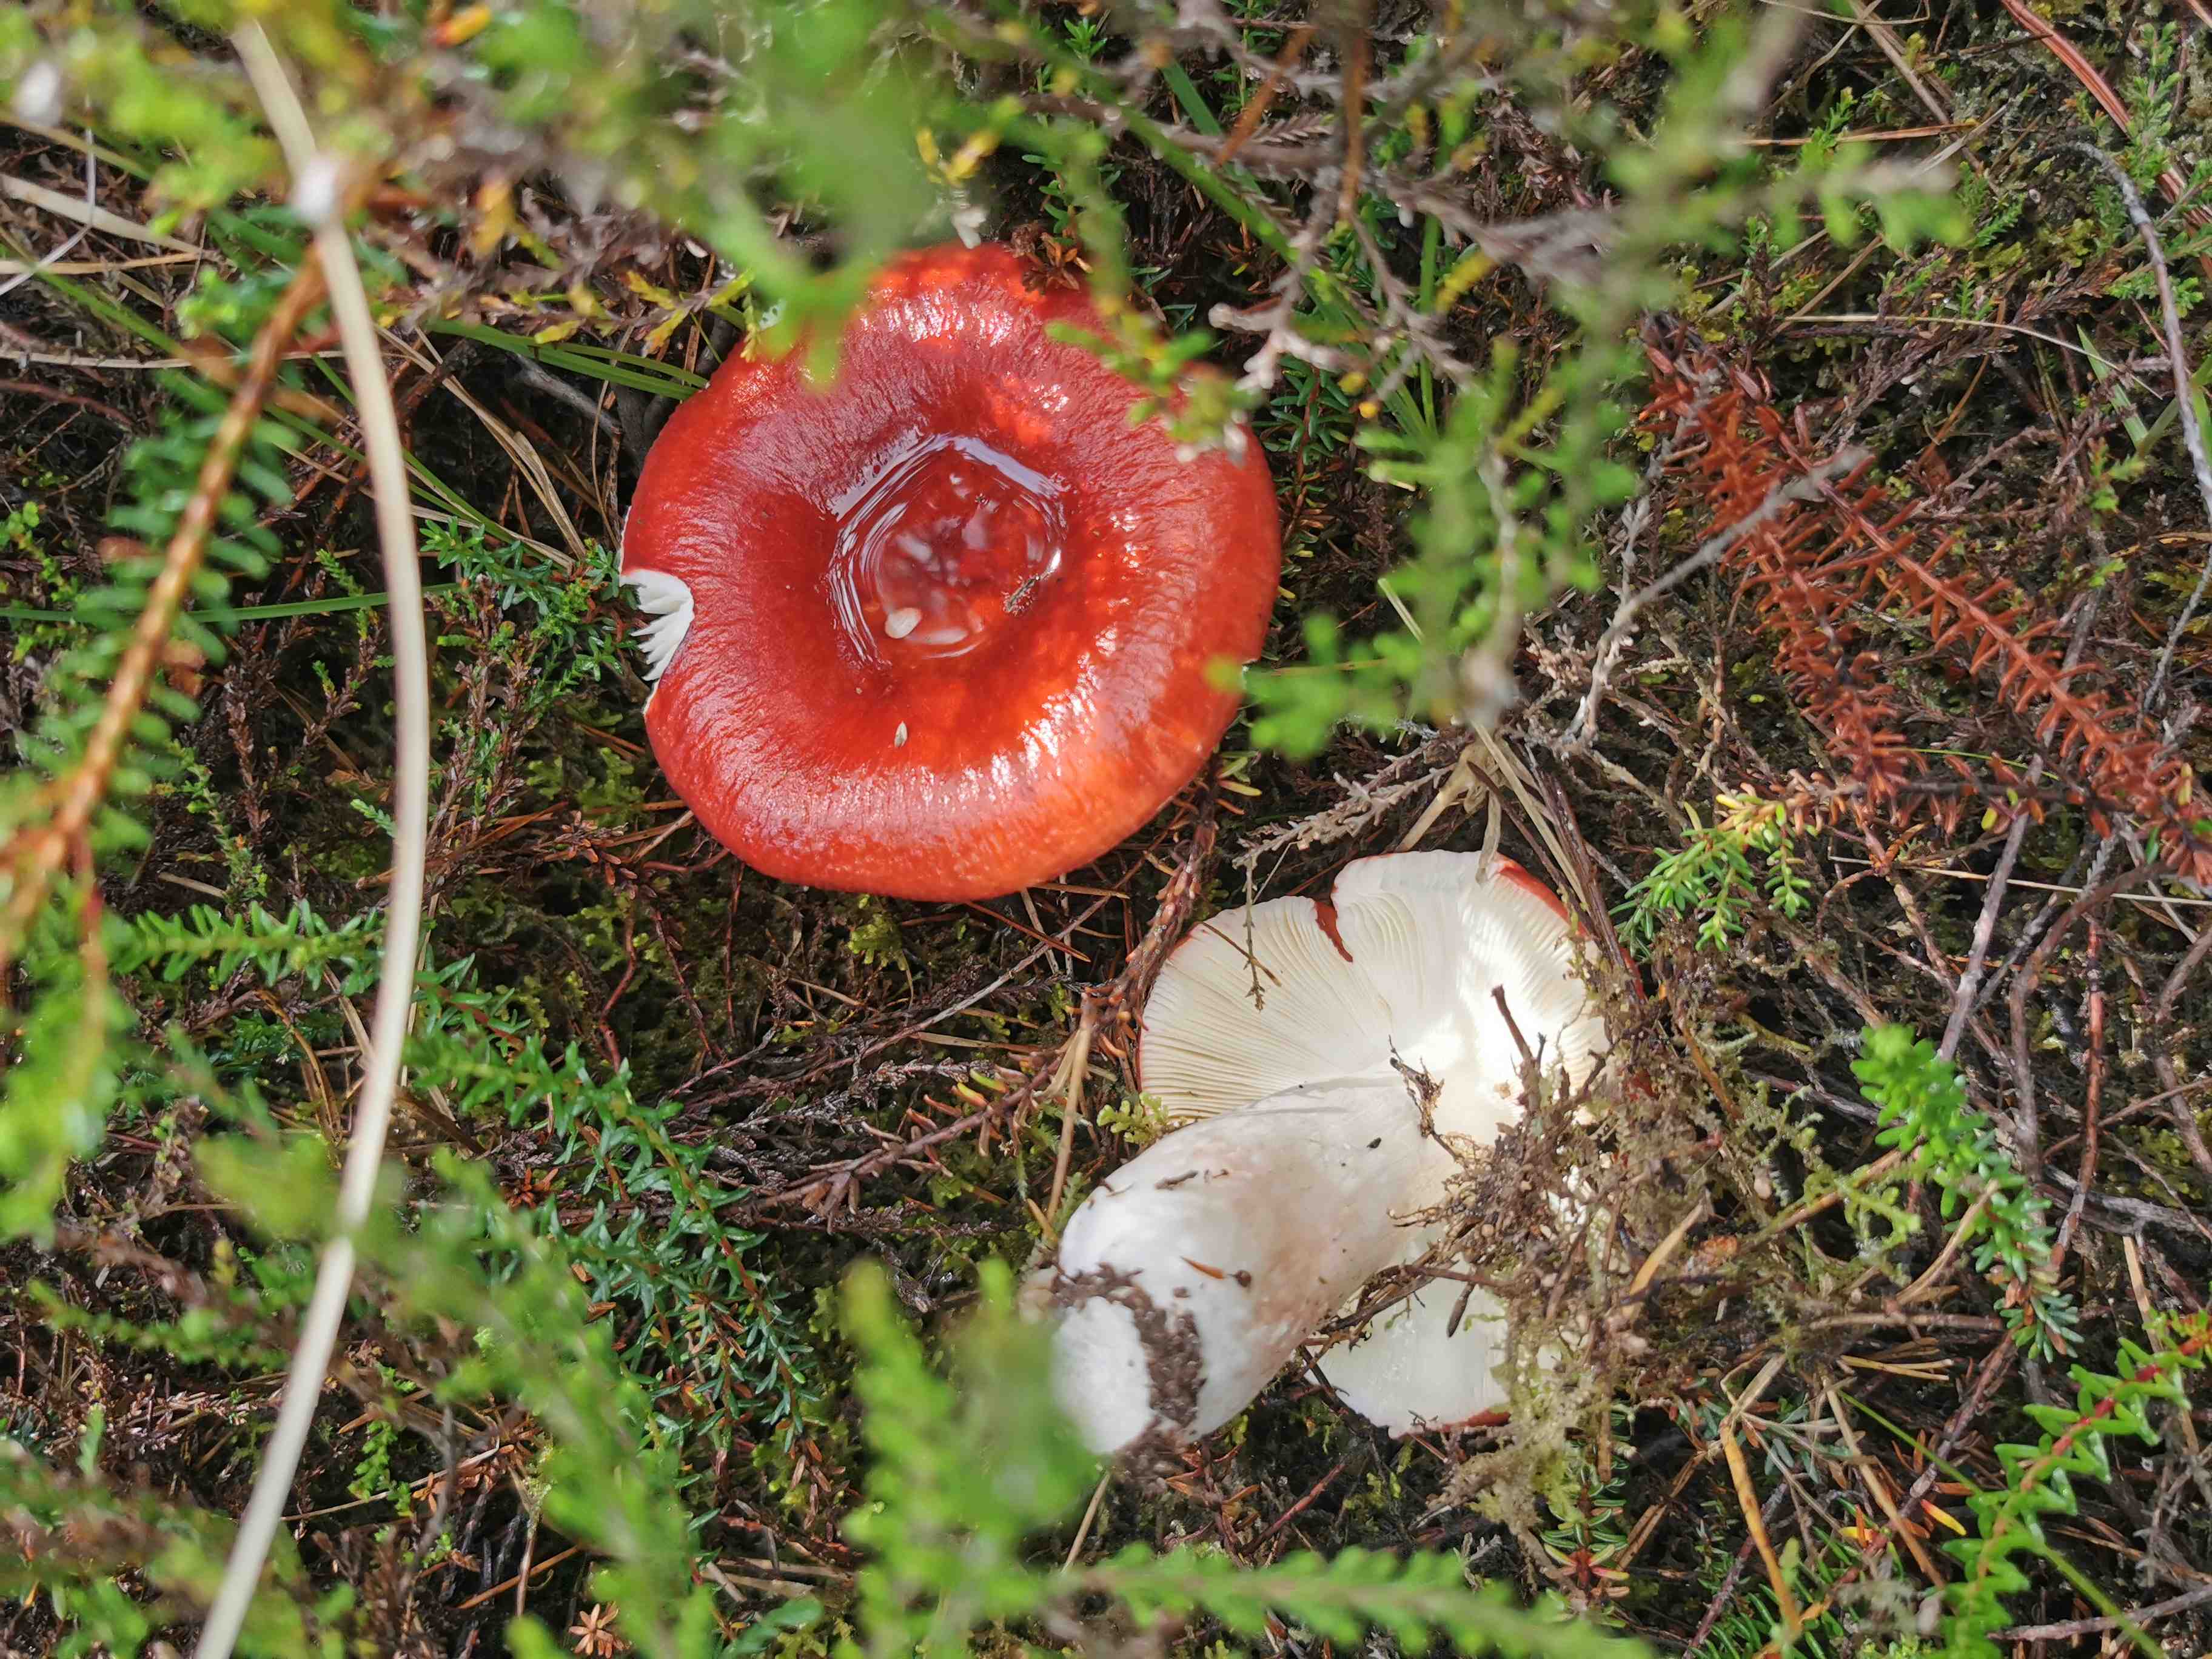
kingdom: Fungi
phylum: Basidiomycota
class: Agaricomycetes
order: Russulales
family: Russulaceae
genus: Russula
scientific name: Russula paludosa
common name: prægtig skørhat
